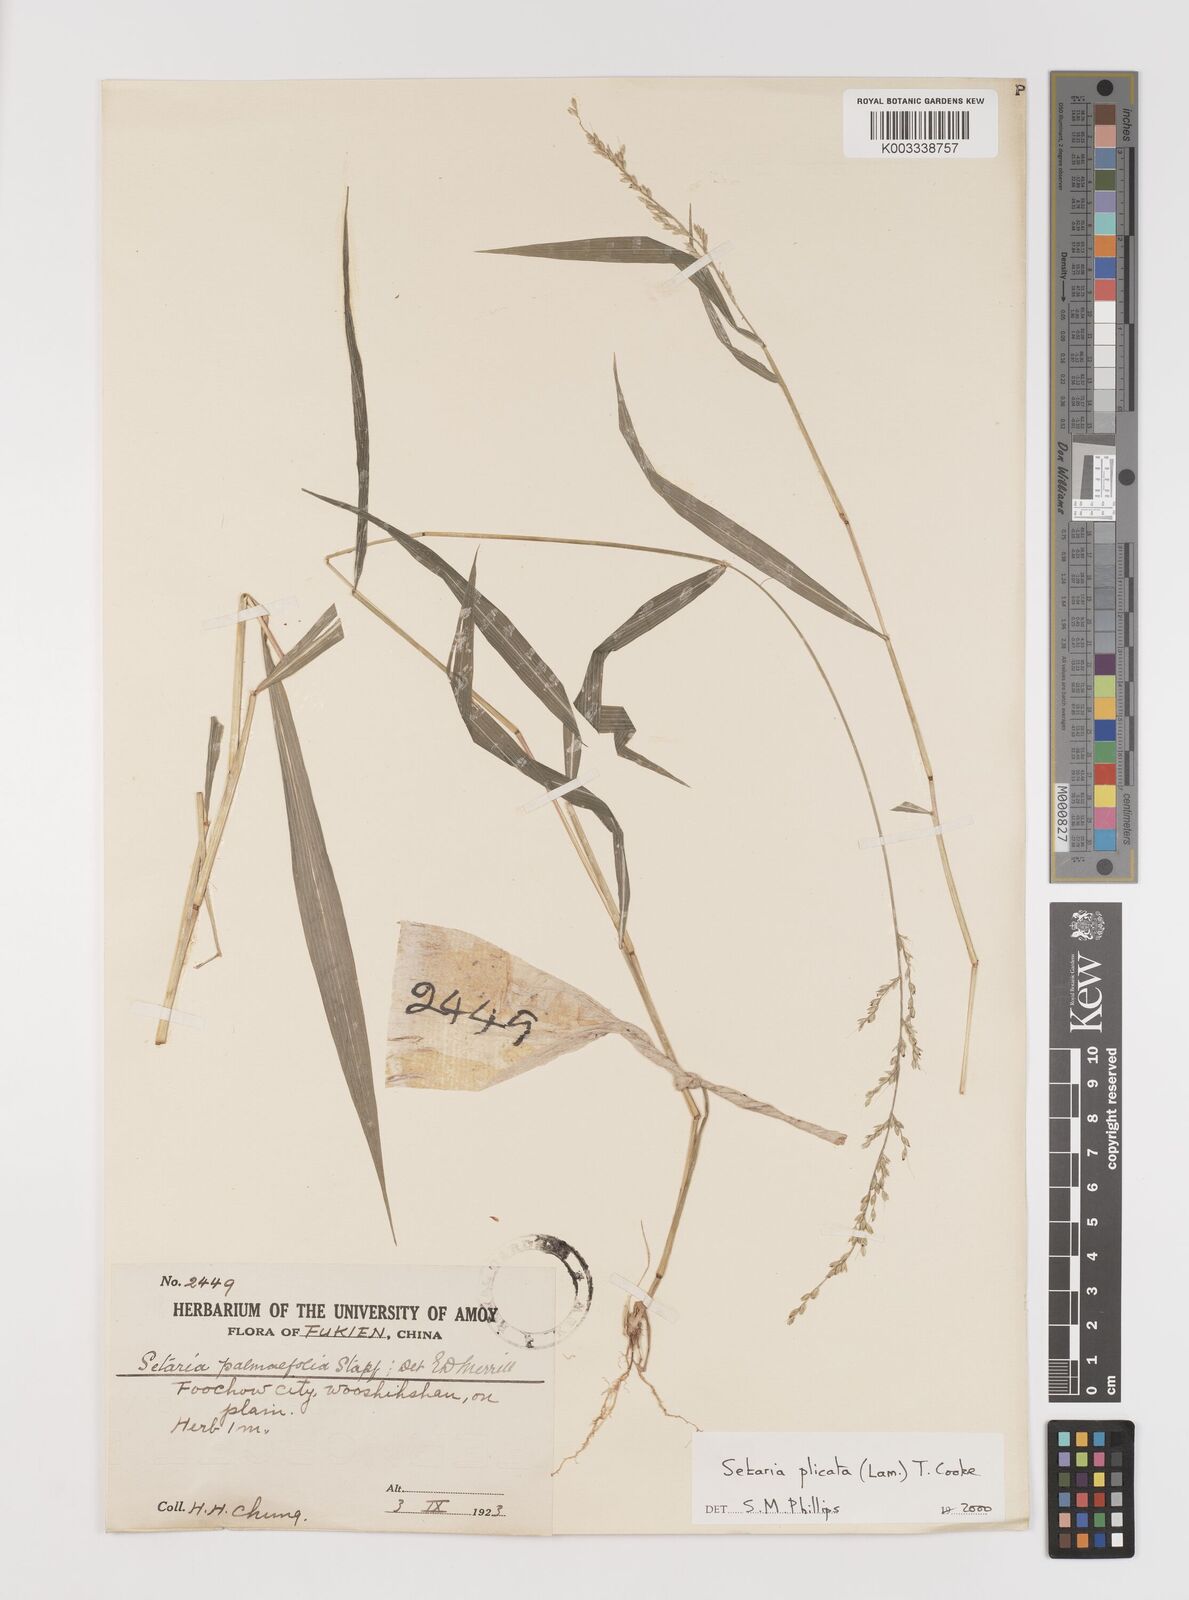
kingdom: Plantae
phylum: Tracheophyta
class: Liliopsida
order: Poales
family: Poaceae
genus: Setaria
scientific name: Setaria plicata
